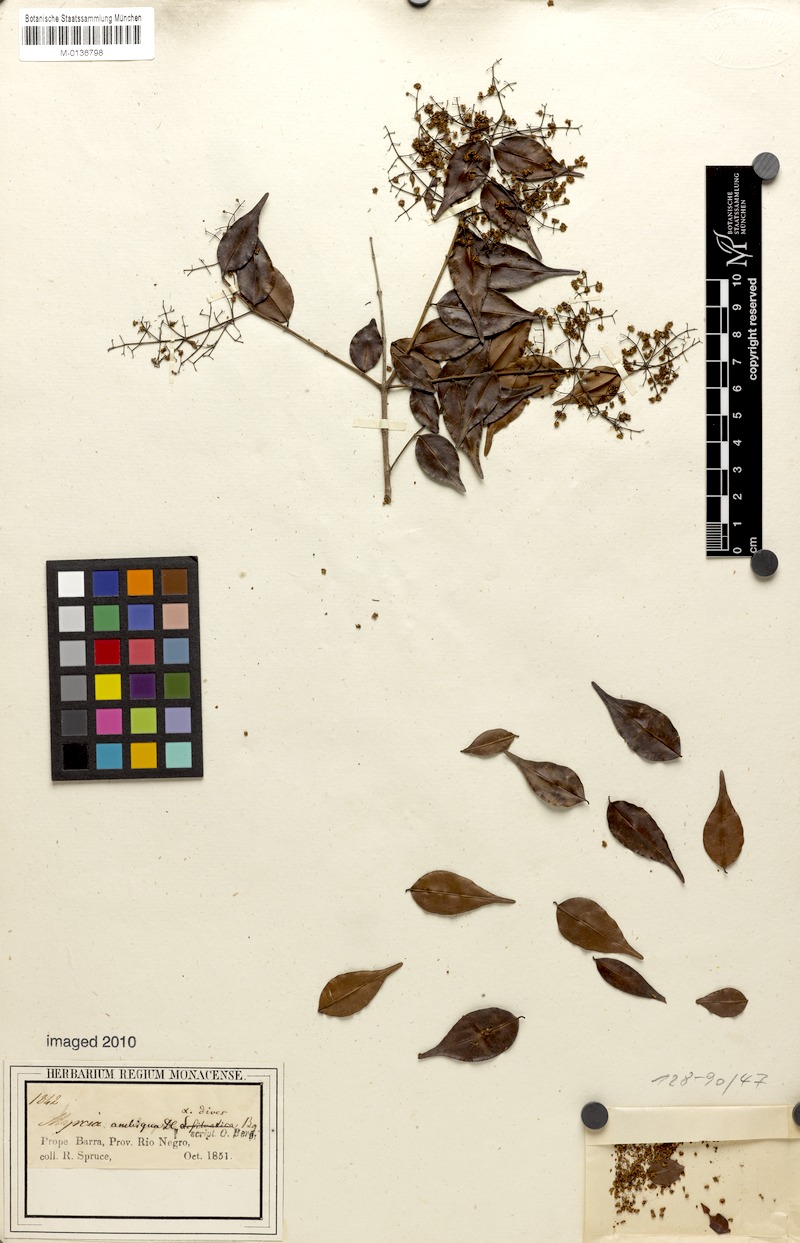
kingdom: Plantae
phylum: Tracheophyta
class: Magnoliopsida
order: Myrtales
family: Myrtaceae
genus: Myrcia
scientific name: Myrcia sylvatica
